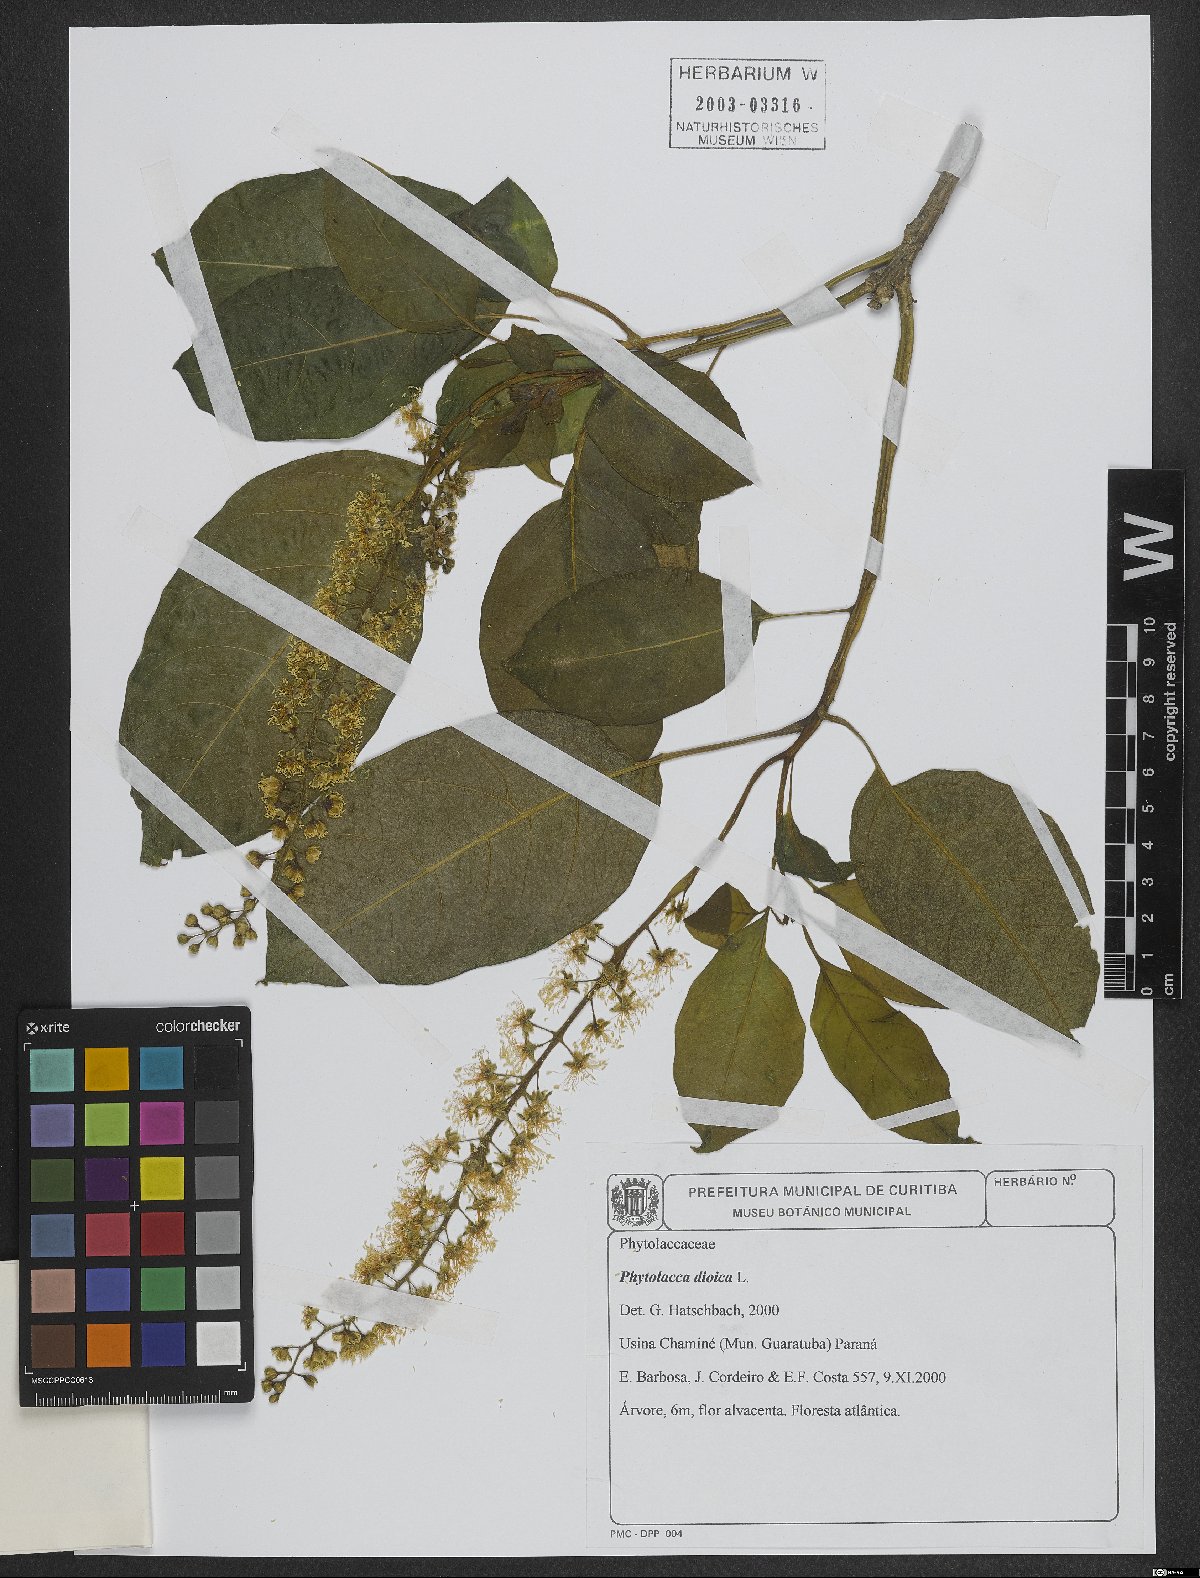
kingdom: Plantae
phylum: Tracheophyta
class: Magnoliopsida
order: Caryophyllales
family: Phytolaccaceae
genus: Phytolacca
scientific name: Phytolacca dioica
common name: Pokeweed
